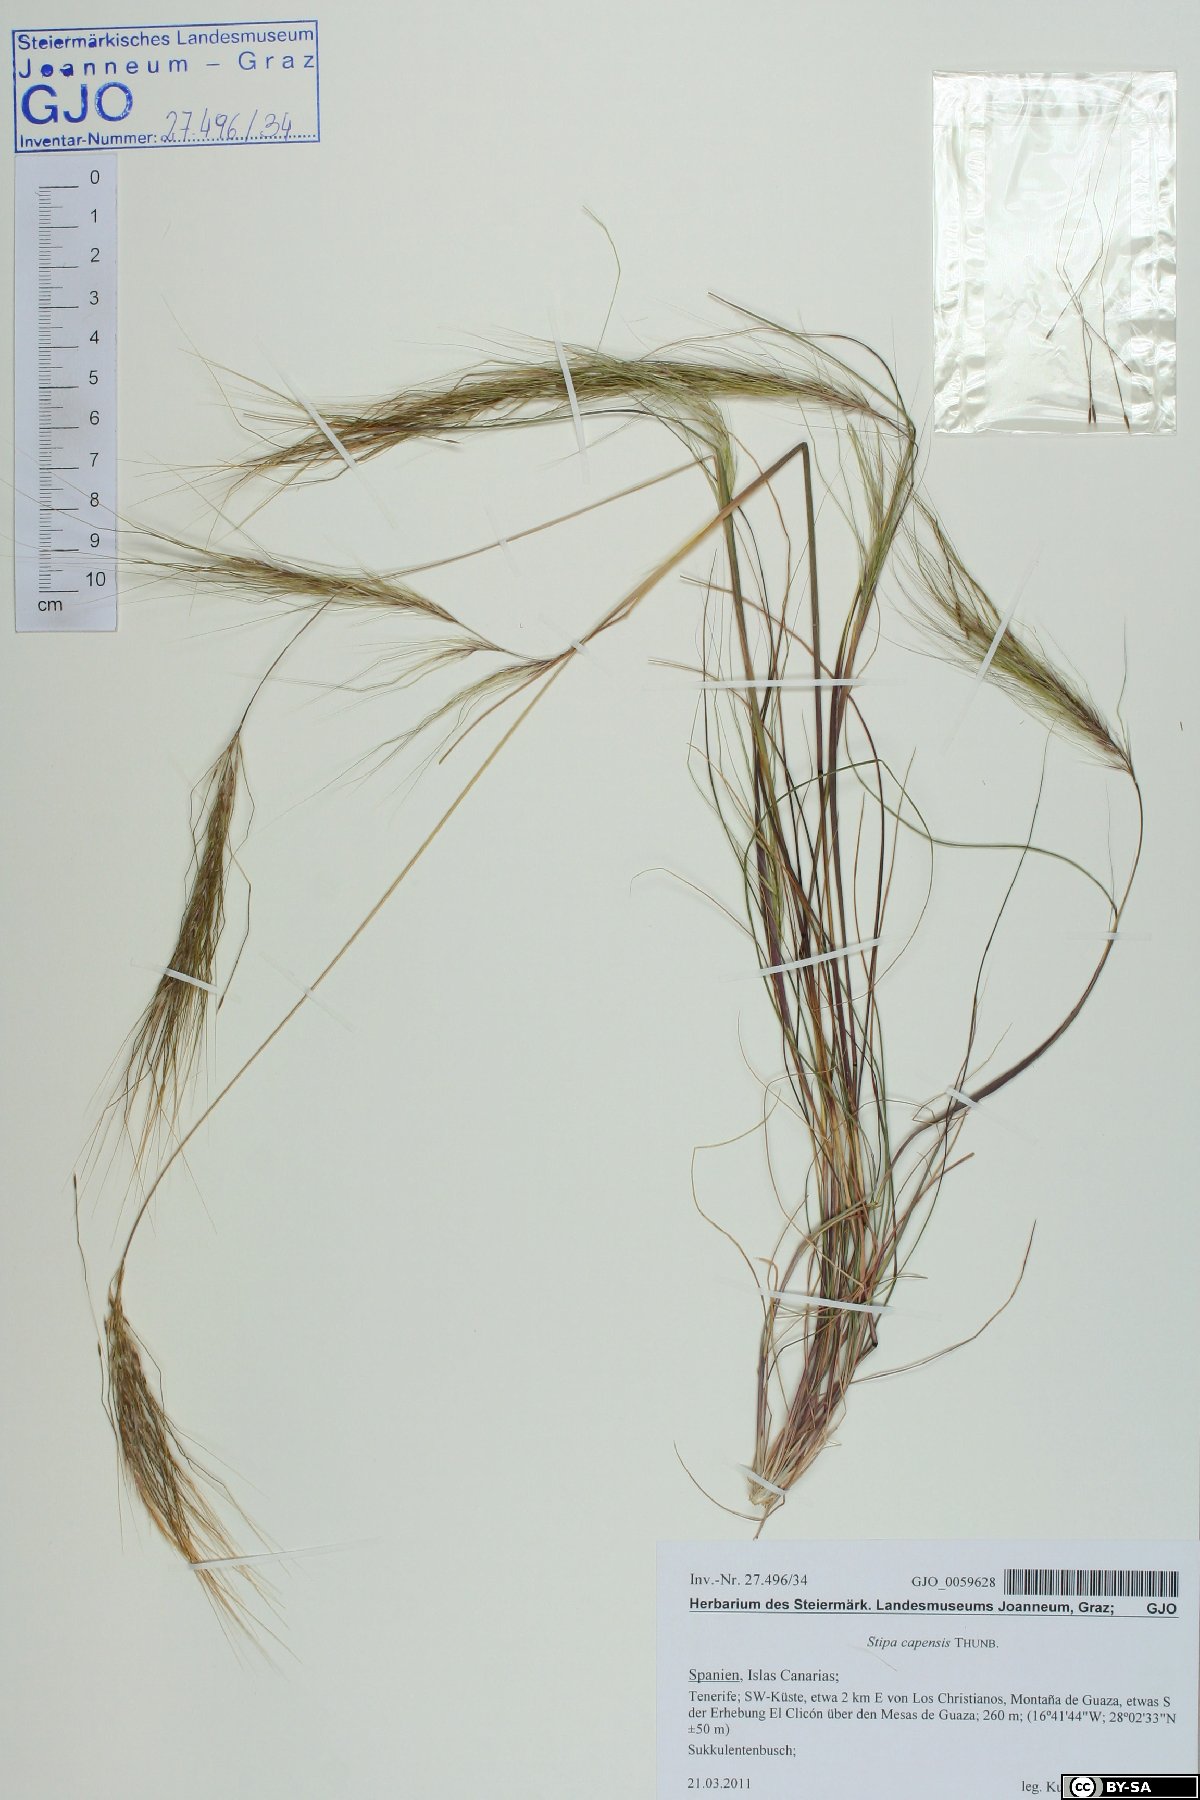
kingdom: Plantae
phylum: Tracheophyta
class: Liliopsida
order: Poales
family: Poaceae
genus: Stipellula
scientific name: Stipellula capensis
